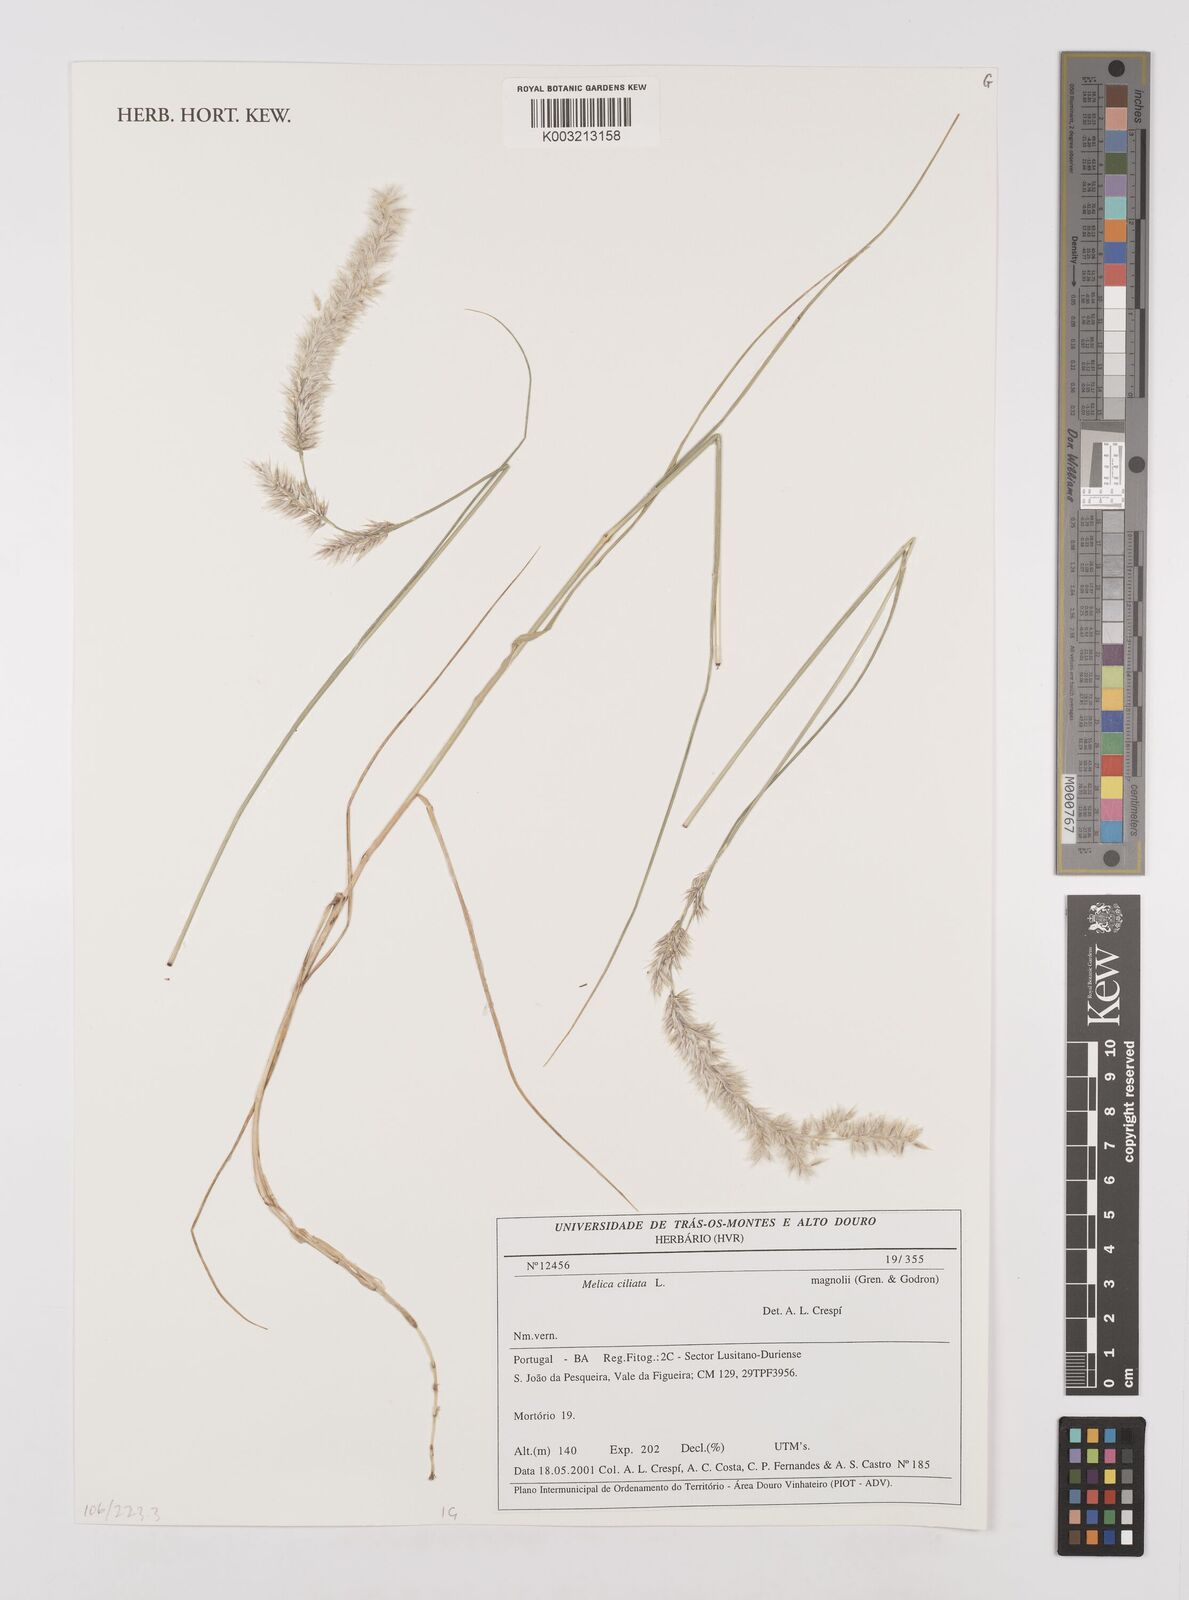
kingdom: Plantae
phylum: Tracheophyta
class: Liliopsida
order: Poales
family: Poaceae
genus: Melica
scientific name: Melica ciliata
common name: Hairy melicgrass
